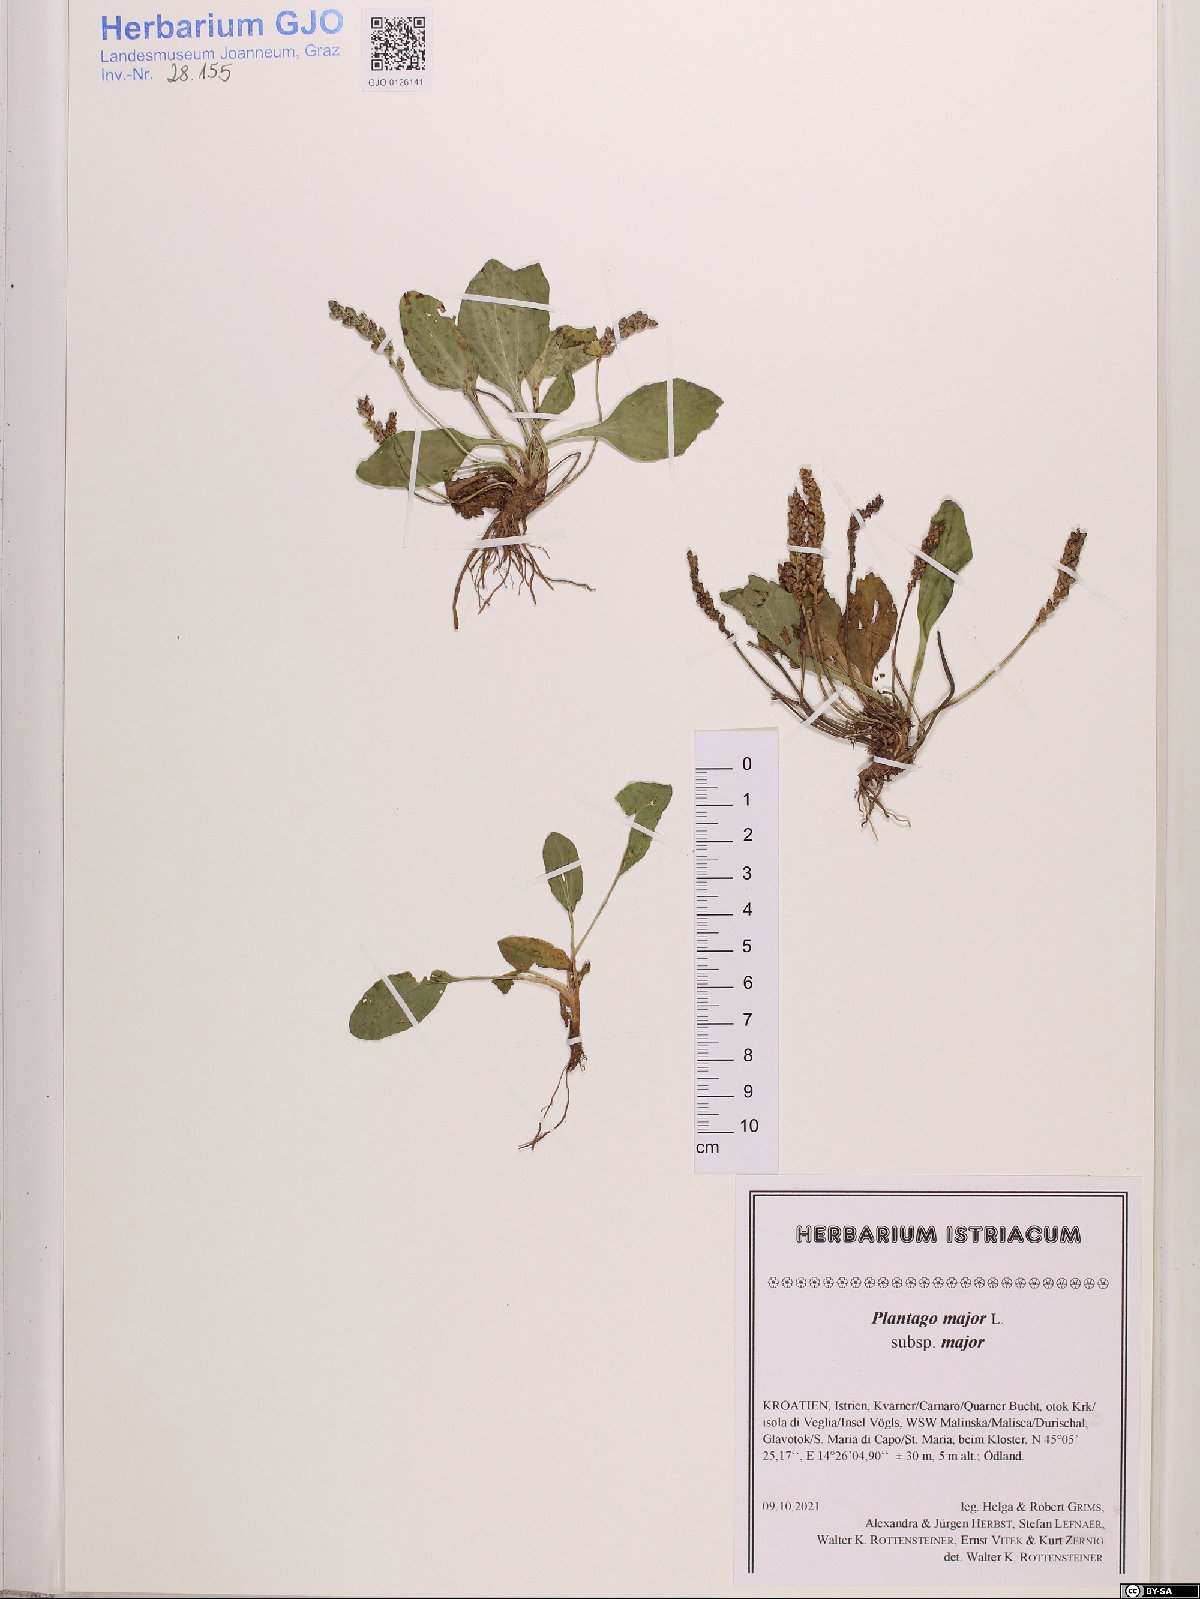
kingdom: Plantae
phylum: Tracheophyta
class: Magnoliopsida
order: Lamiales
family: Plantaginaceae
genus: Plantago
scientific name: Plantago major
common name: Common plantain
